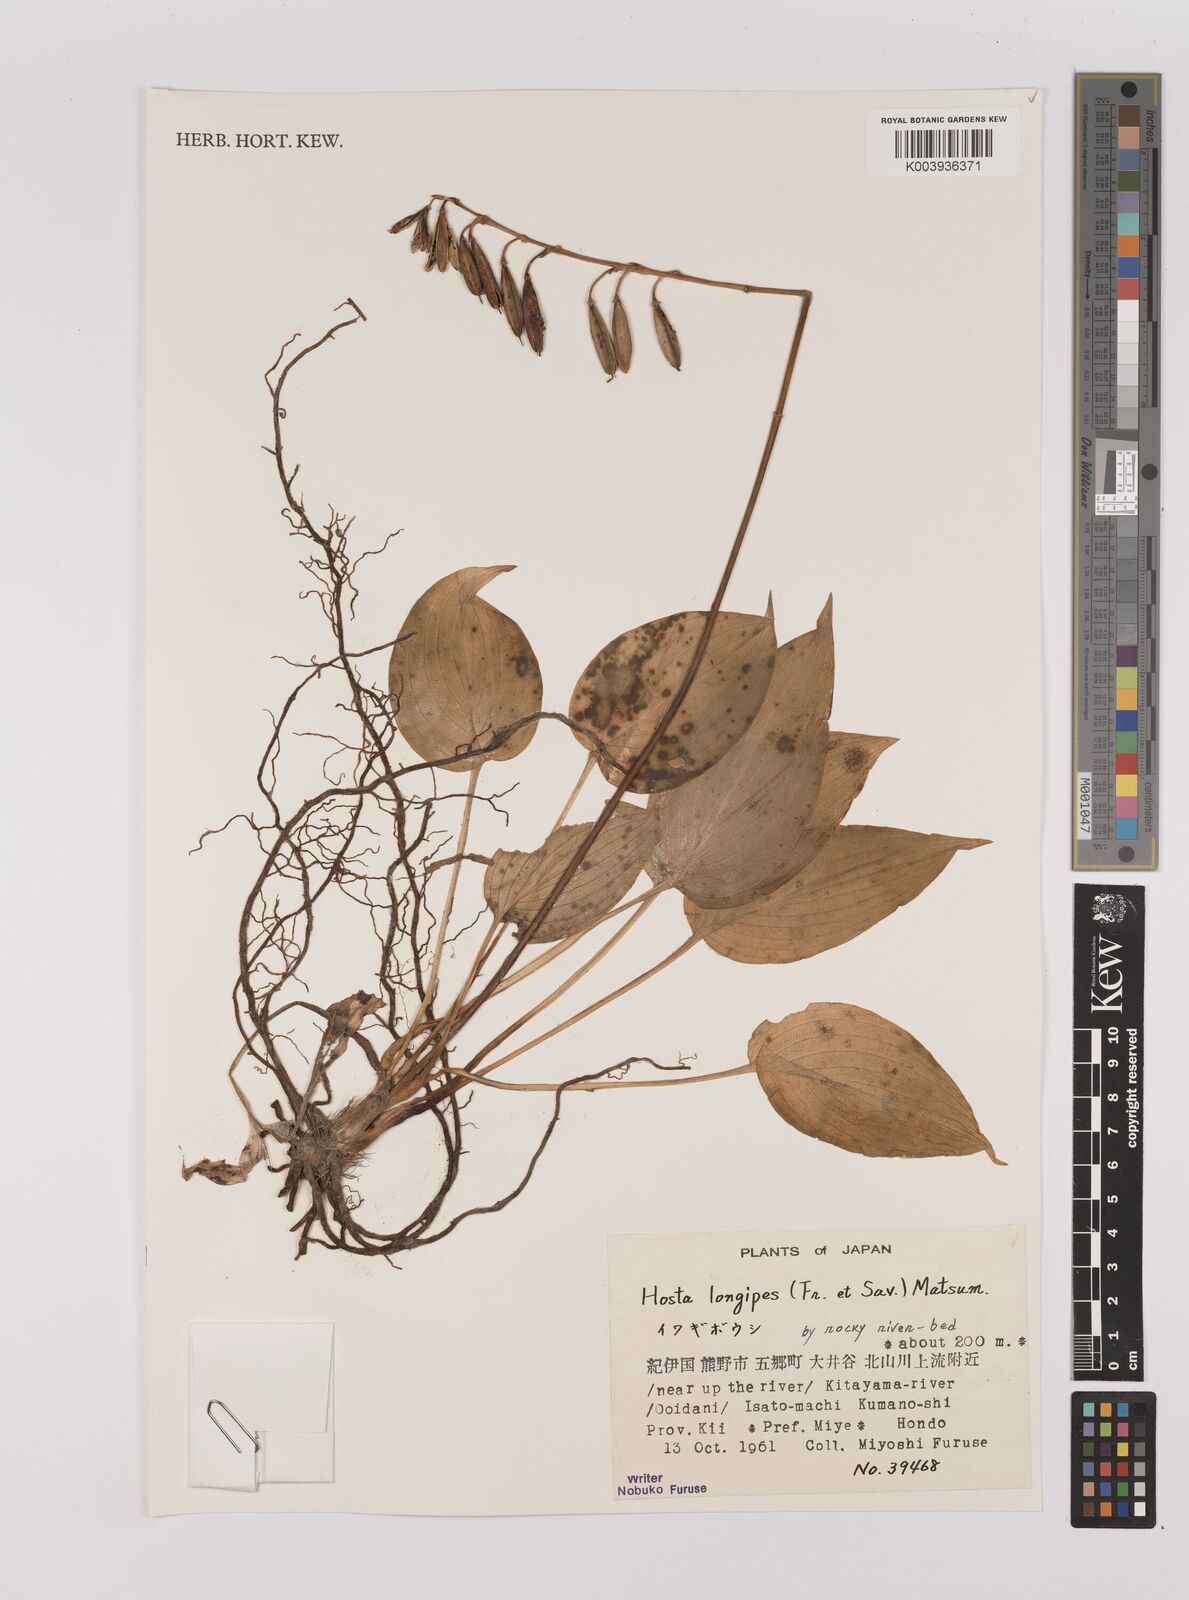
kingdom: Plantae
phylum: Tracheophyta
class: Liliopsida
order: Asparagales
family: Asparagaceae
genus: Hosta
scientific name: Hosta
